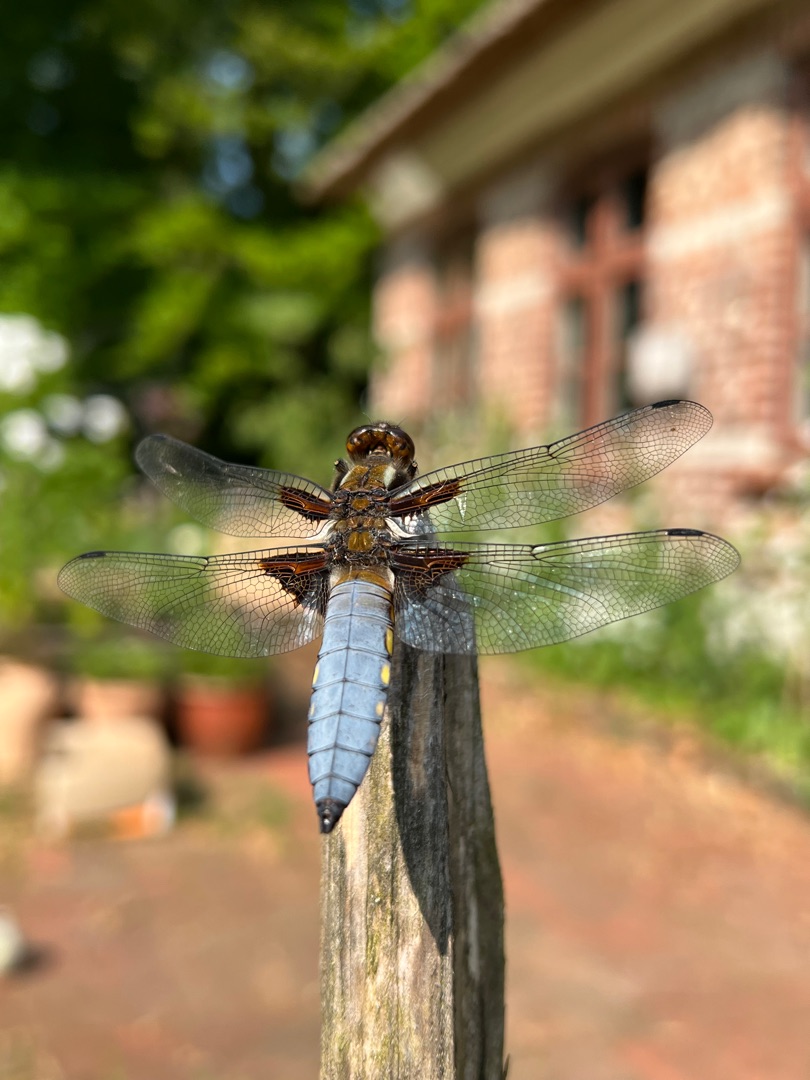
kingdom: Animalia
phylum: Arthropoda
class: Insecta
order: Odonata
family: Libellulidae
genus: Libellula
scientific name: Libellula depressa
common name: Blå libel
